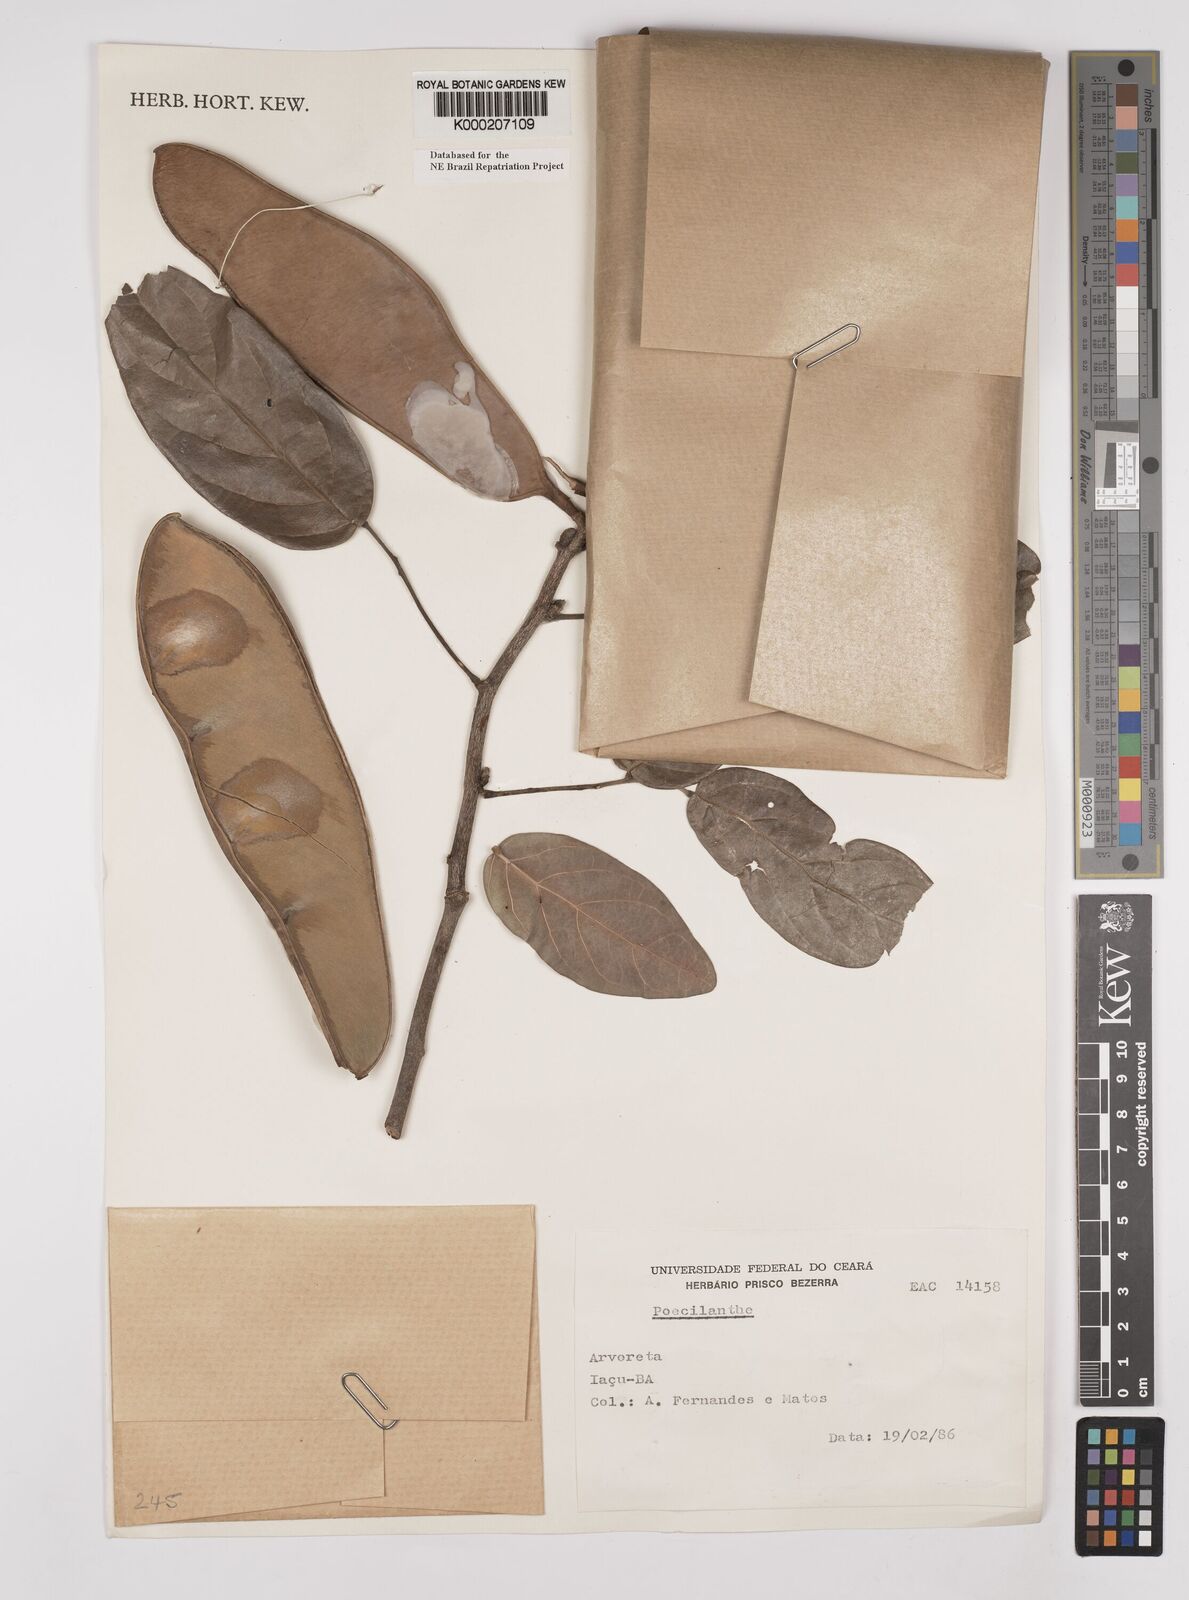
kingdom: Plantae
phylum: Tracheophyta
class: Magnoliopsida
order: Fabales
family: Fabaceae
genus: Poecilanthe
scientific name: Poecilanthe ulei
